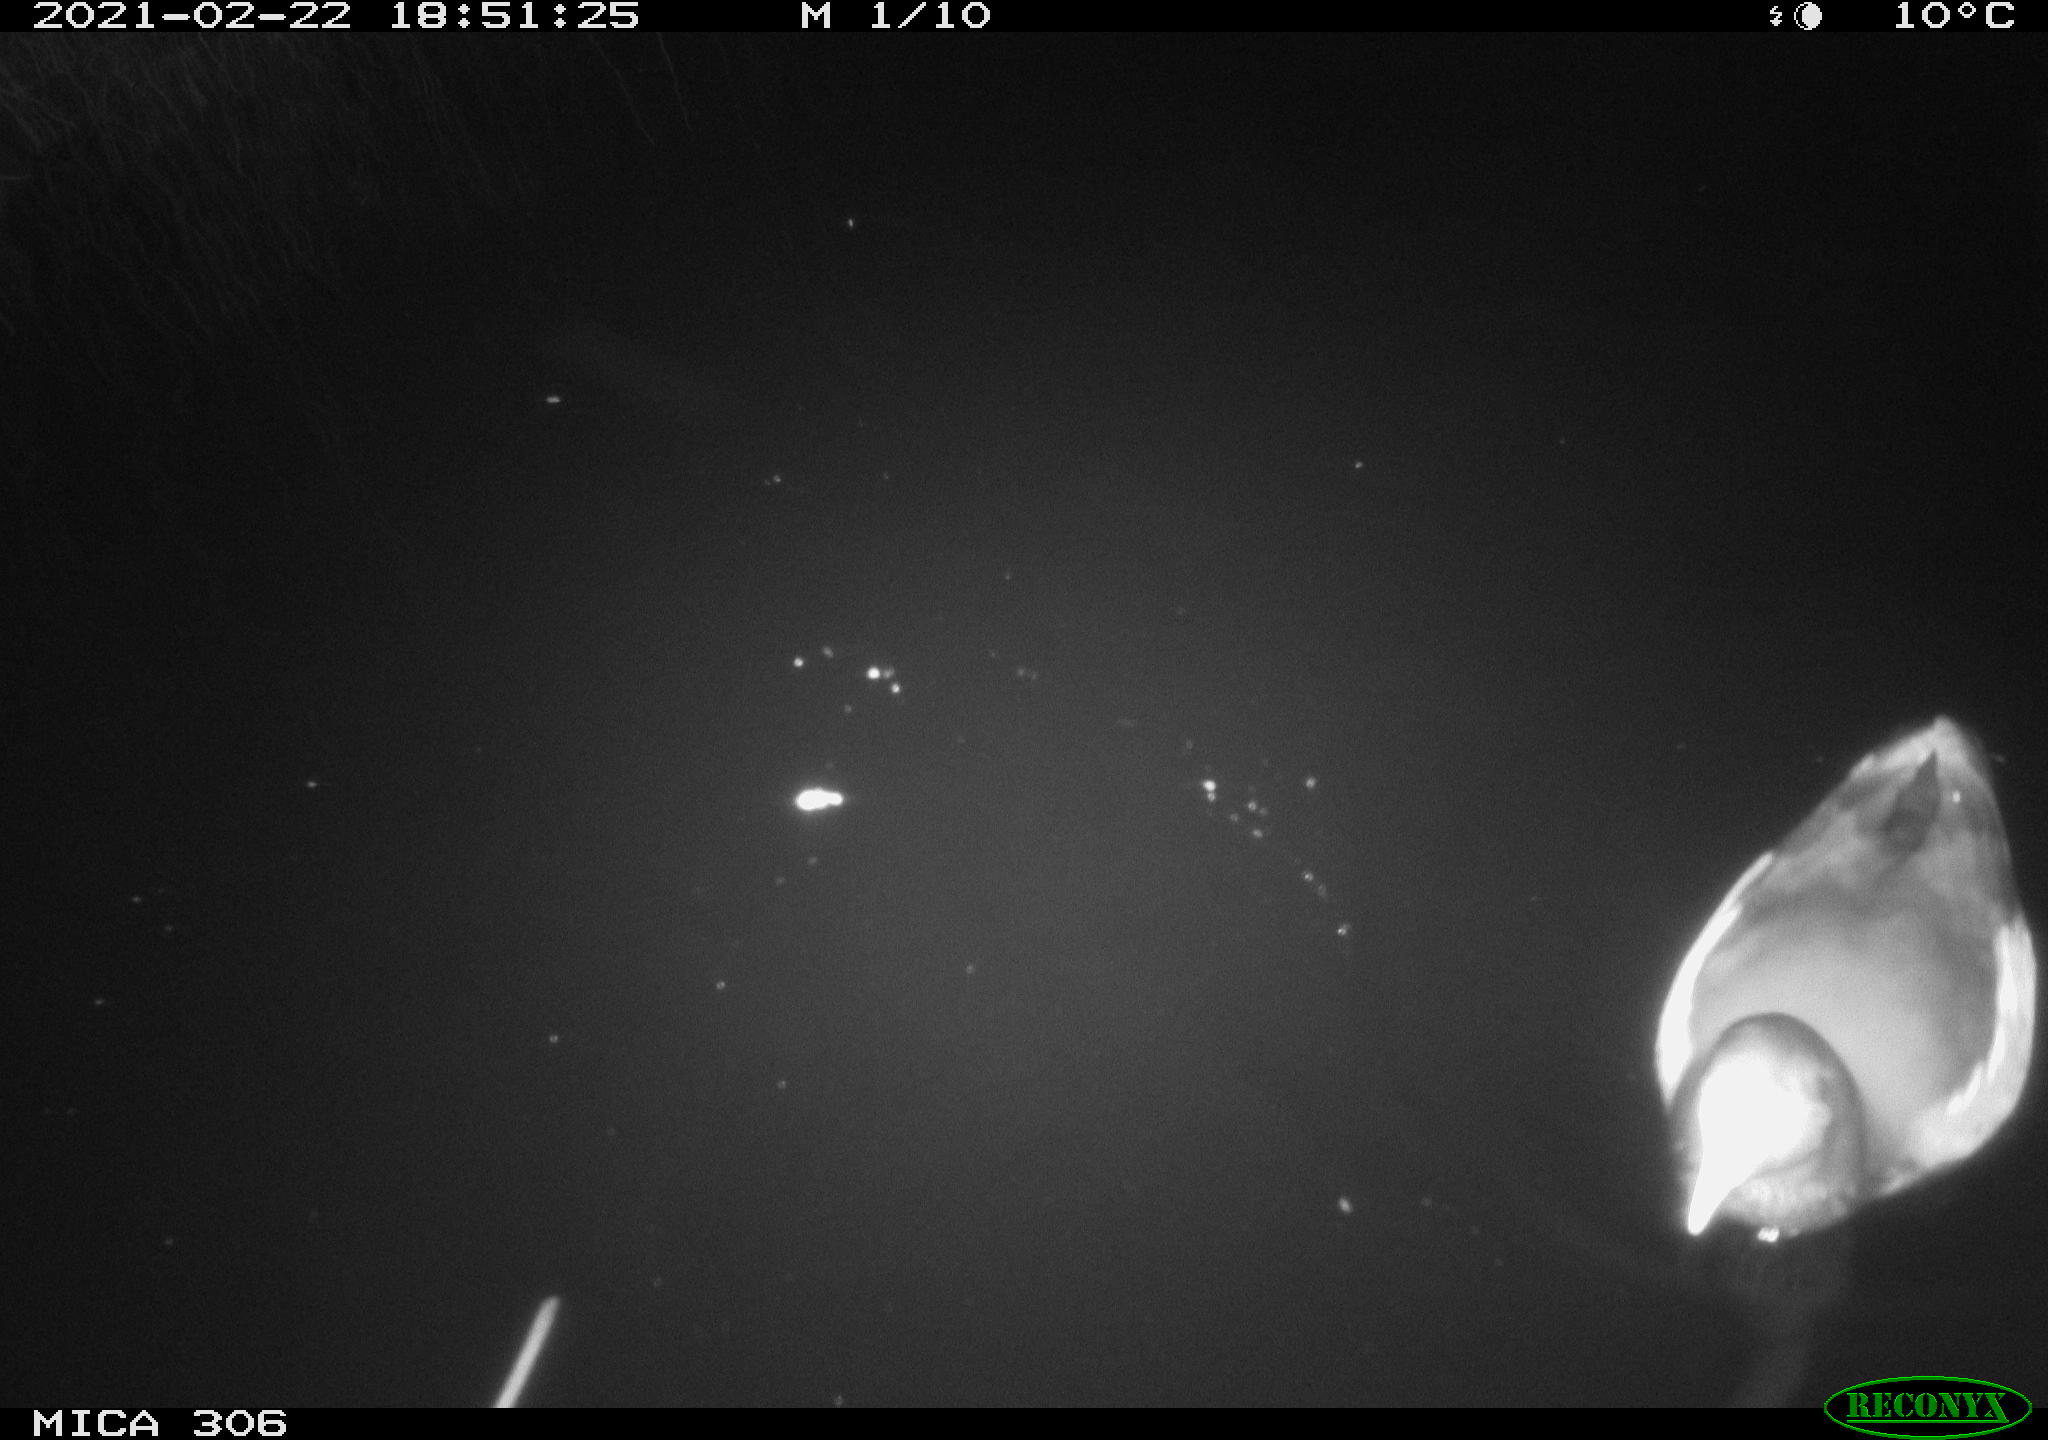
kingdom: Animalia
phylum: Chordata
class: Aves
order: Gruiformes
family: Rallidae
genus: Gallinula
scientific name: Gallinula chloropus
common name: Common moorhen
